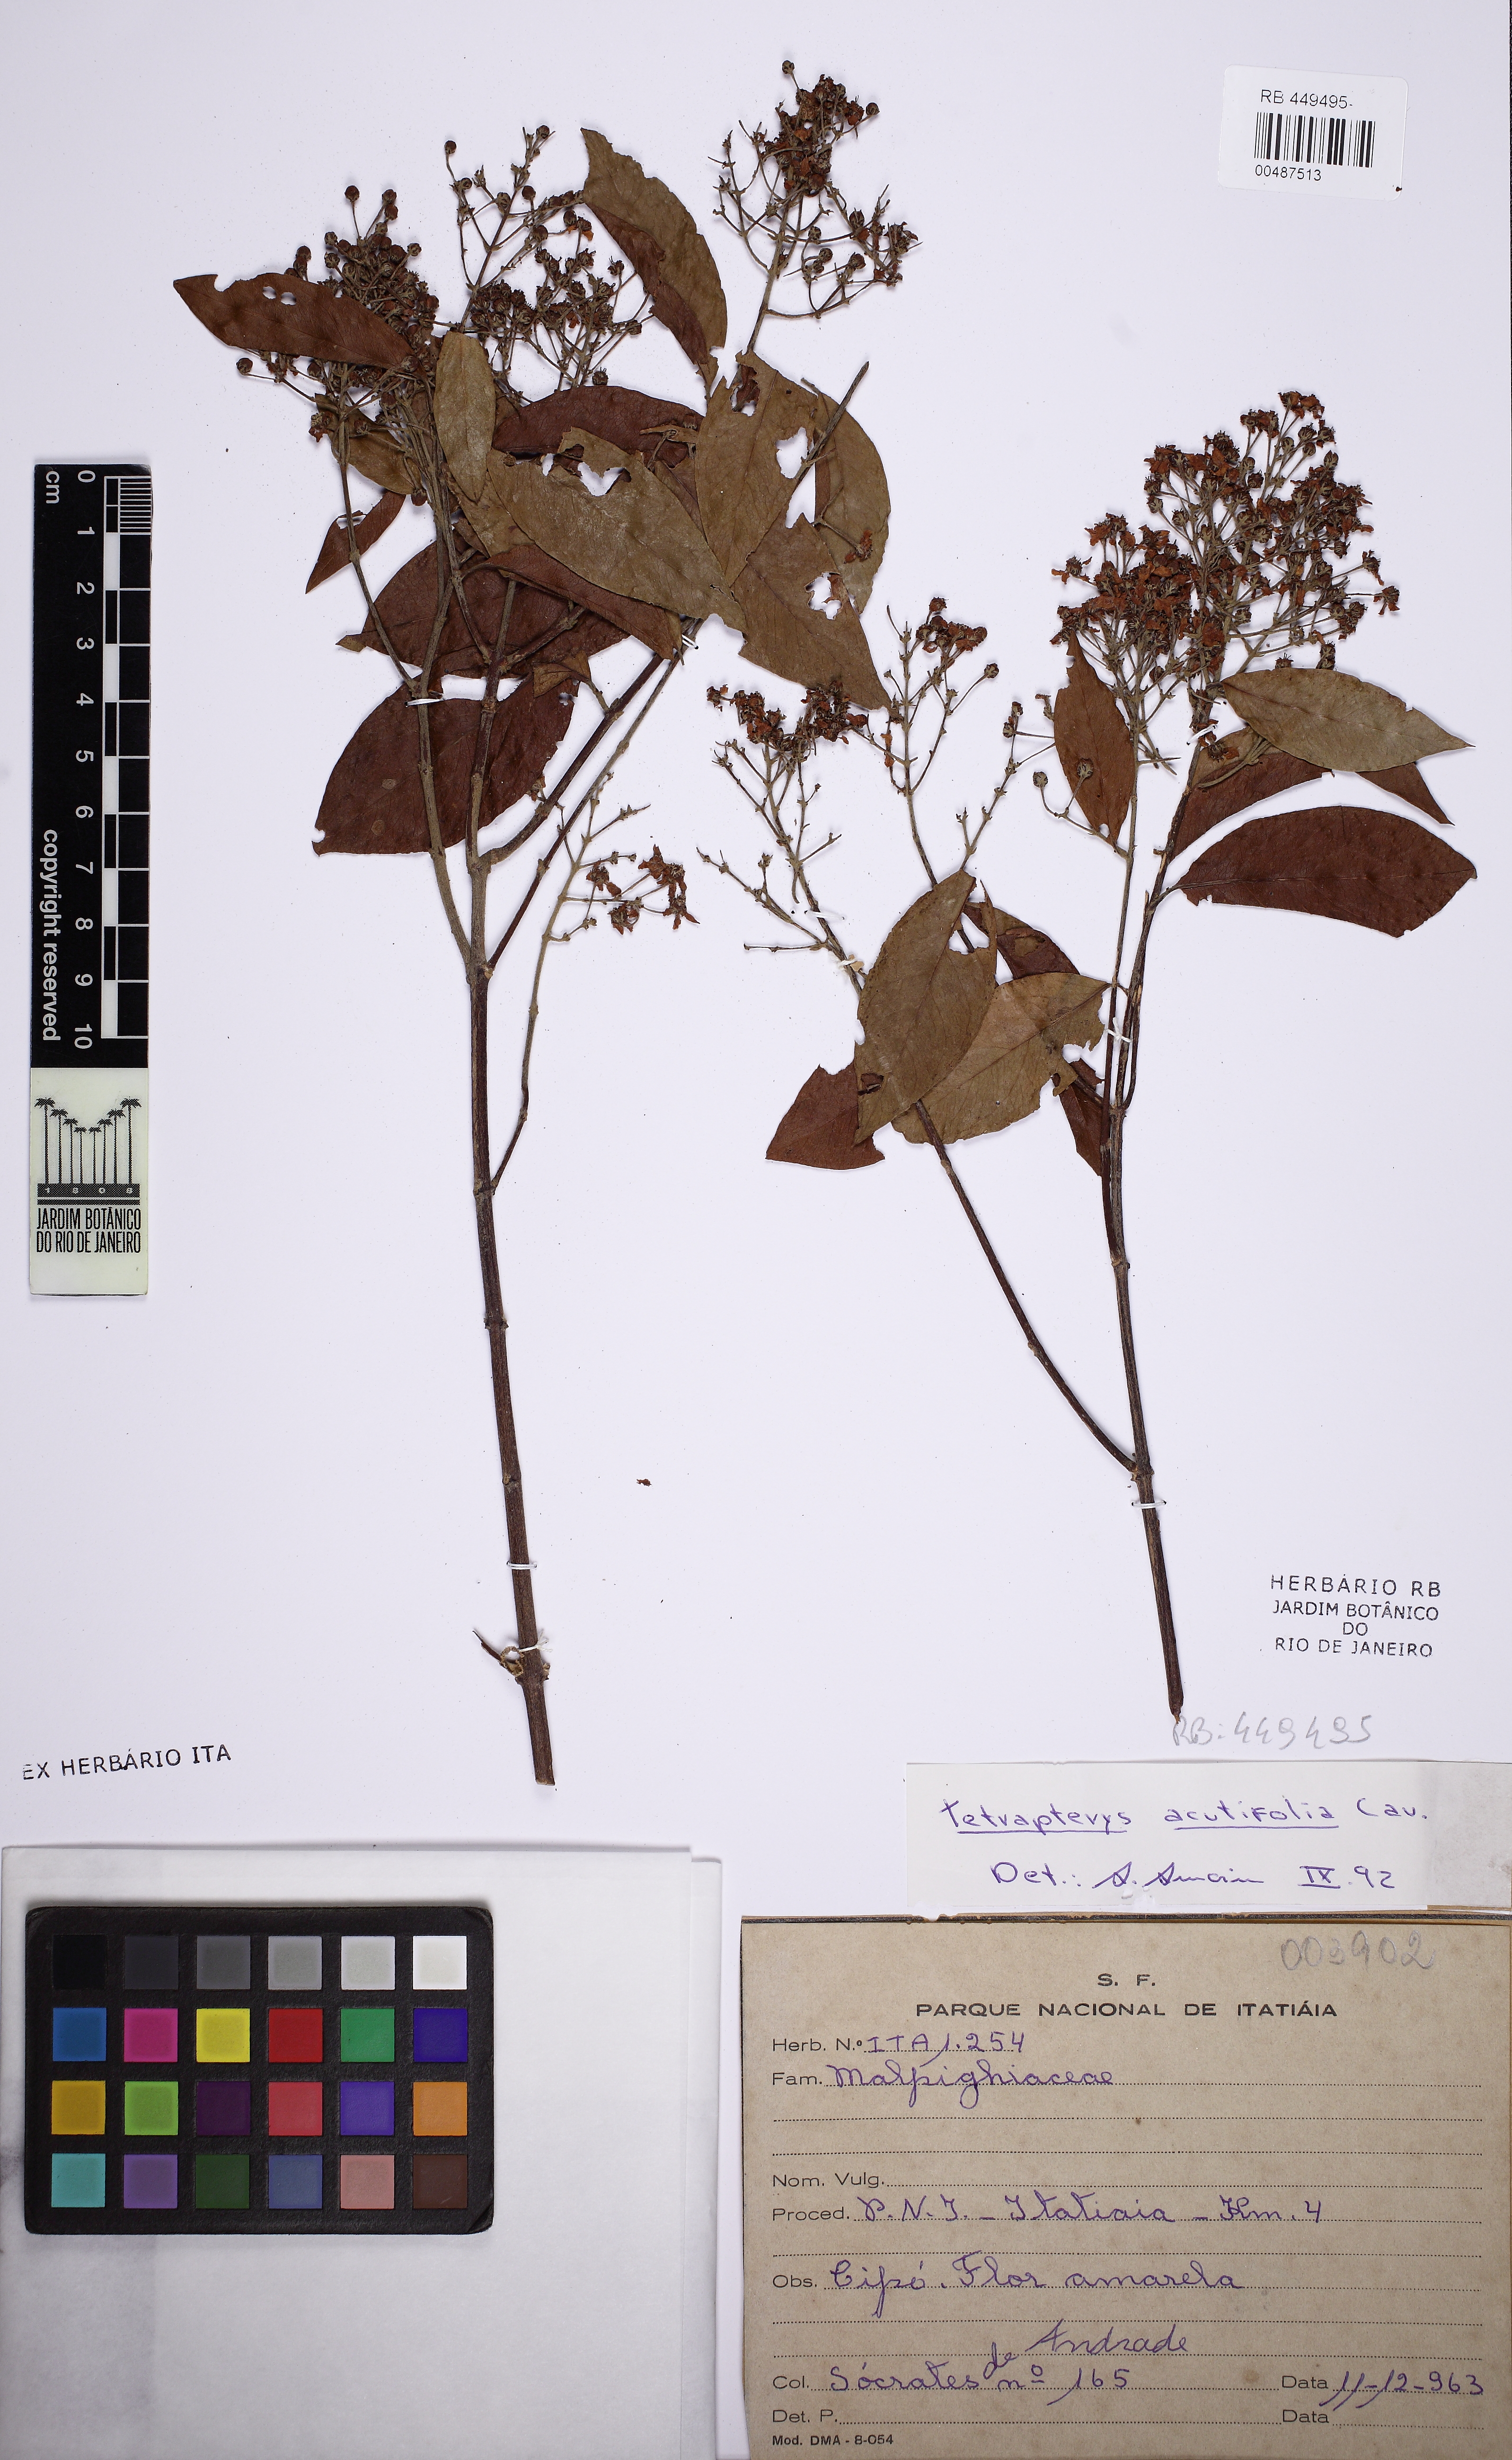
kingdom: Plantae
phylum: Tracheophyta
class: Magnoliopsida
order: Malpighiales
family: Malpighiaceae
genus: Niedenzuella
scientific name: Niedenzuella acutifolia
